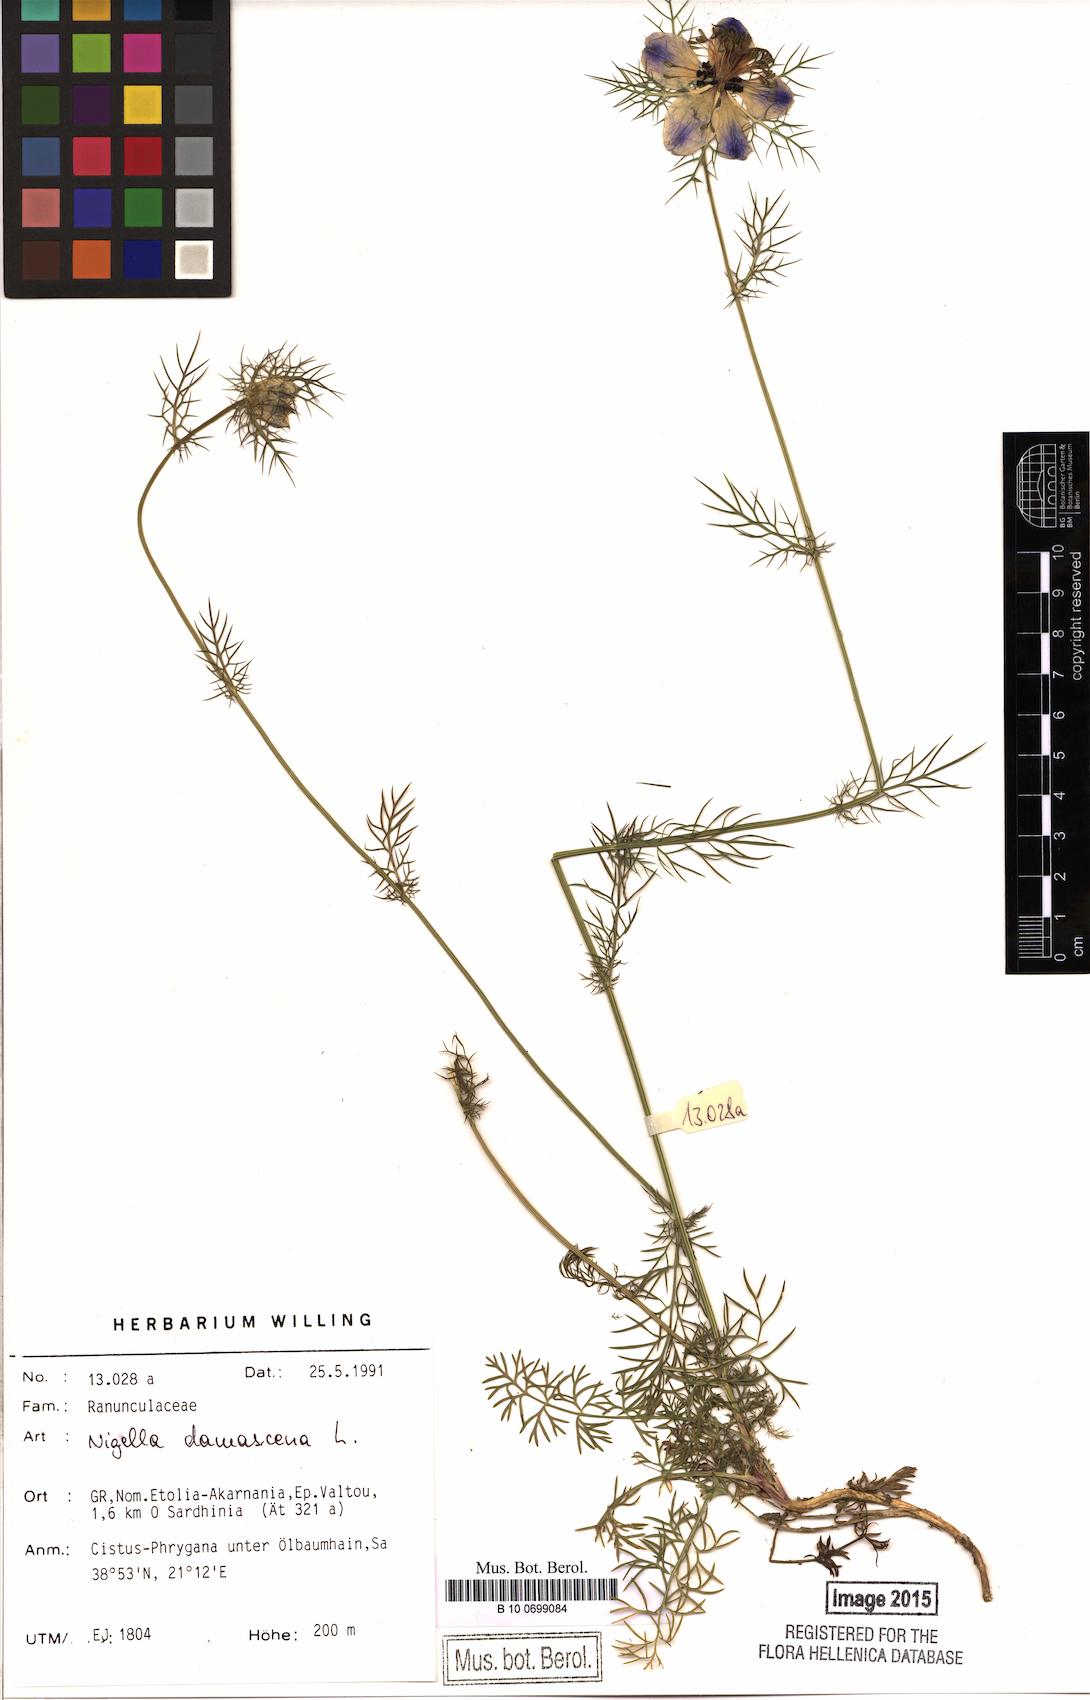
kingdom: Plantae
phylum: Tracheophyta
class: Magnoliopsida
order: Ranunculales
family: Ranunculaceae
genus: Nigella
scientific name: Nigella damascena
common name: Love-in-a-mist
